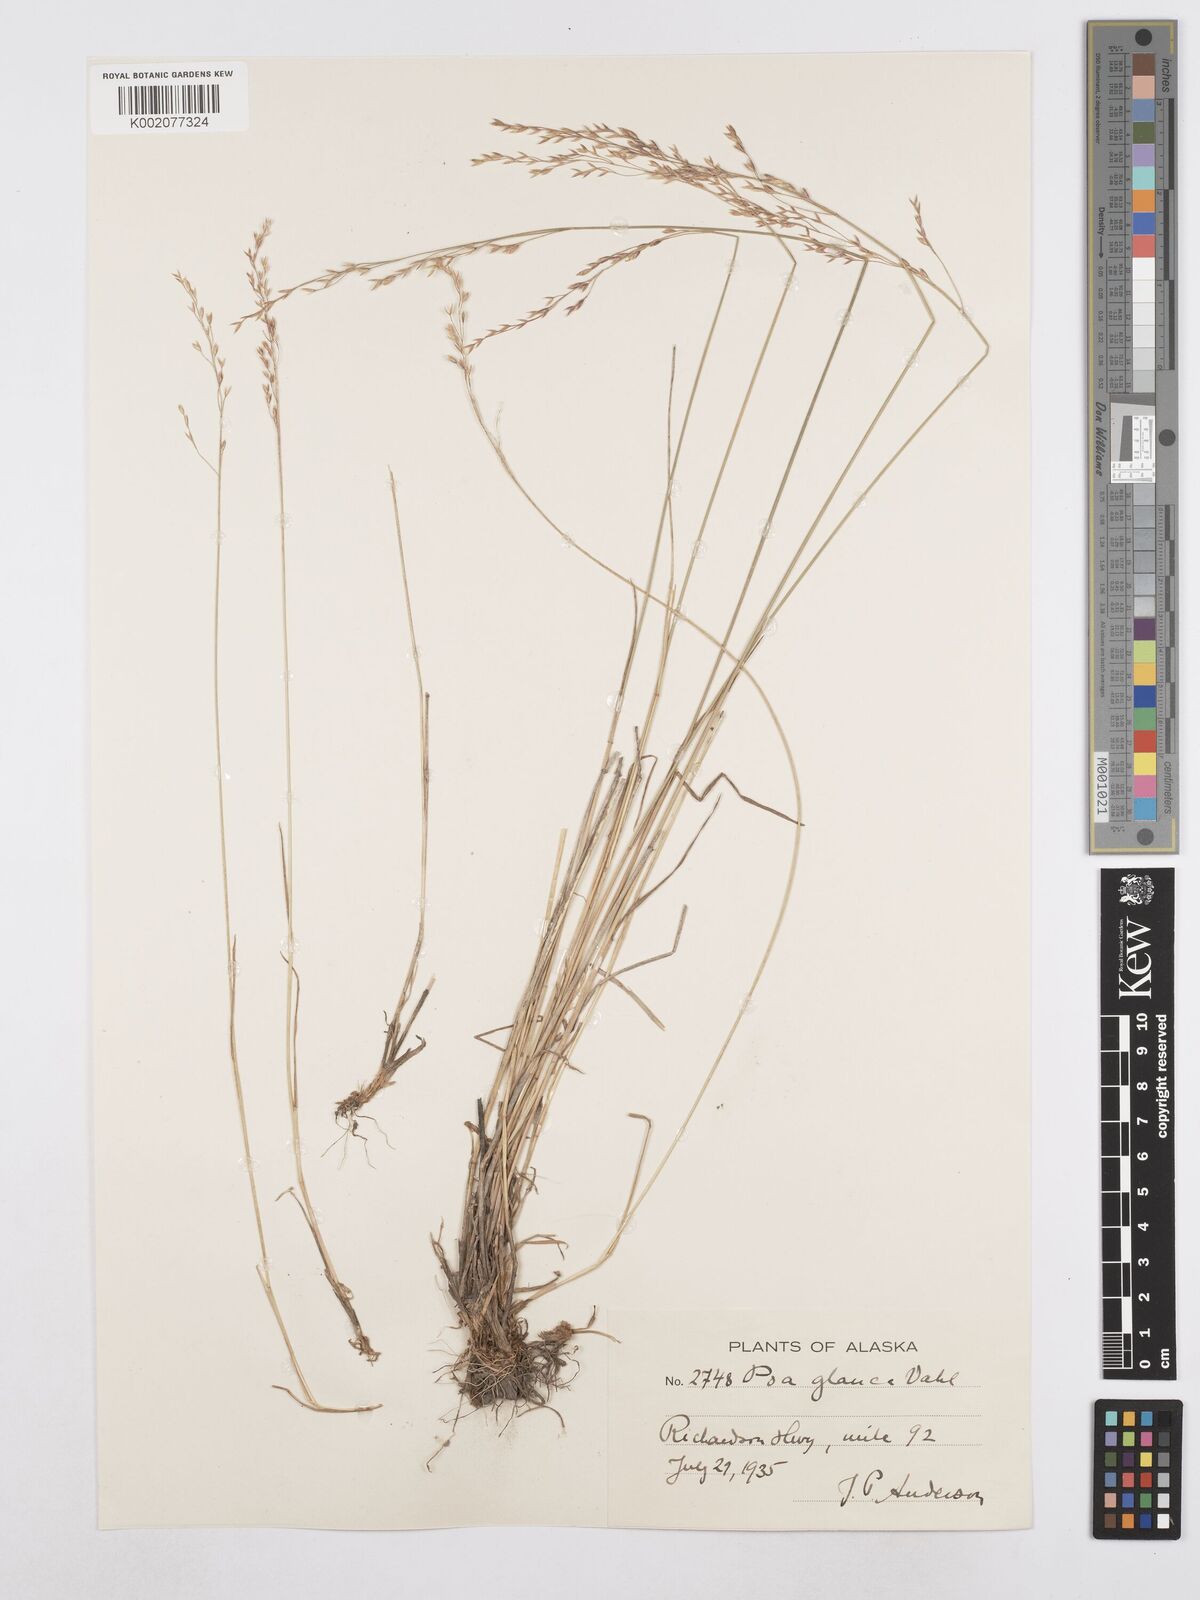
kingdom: Plantae
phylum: Tracheophyta
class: Liliopsida
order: Poales
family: Poaceae
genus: Poa
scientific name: Poa glauca
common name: Glaucous bluegrass
